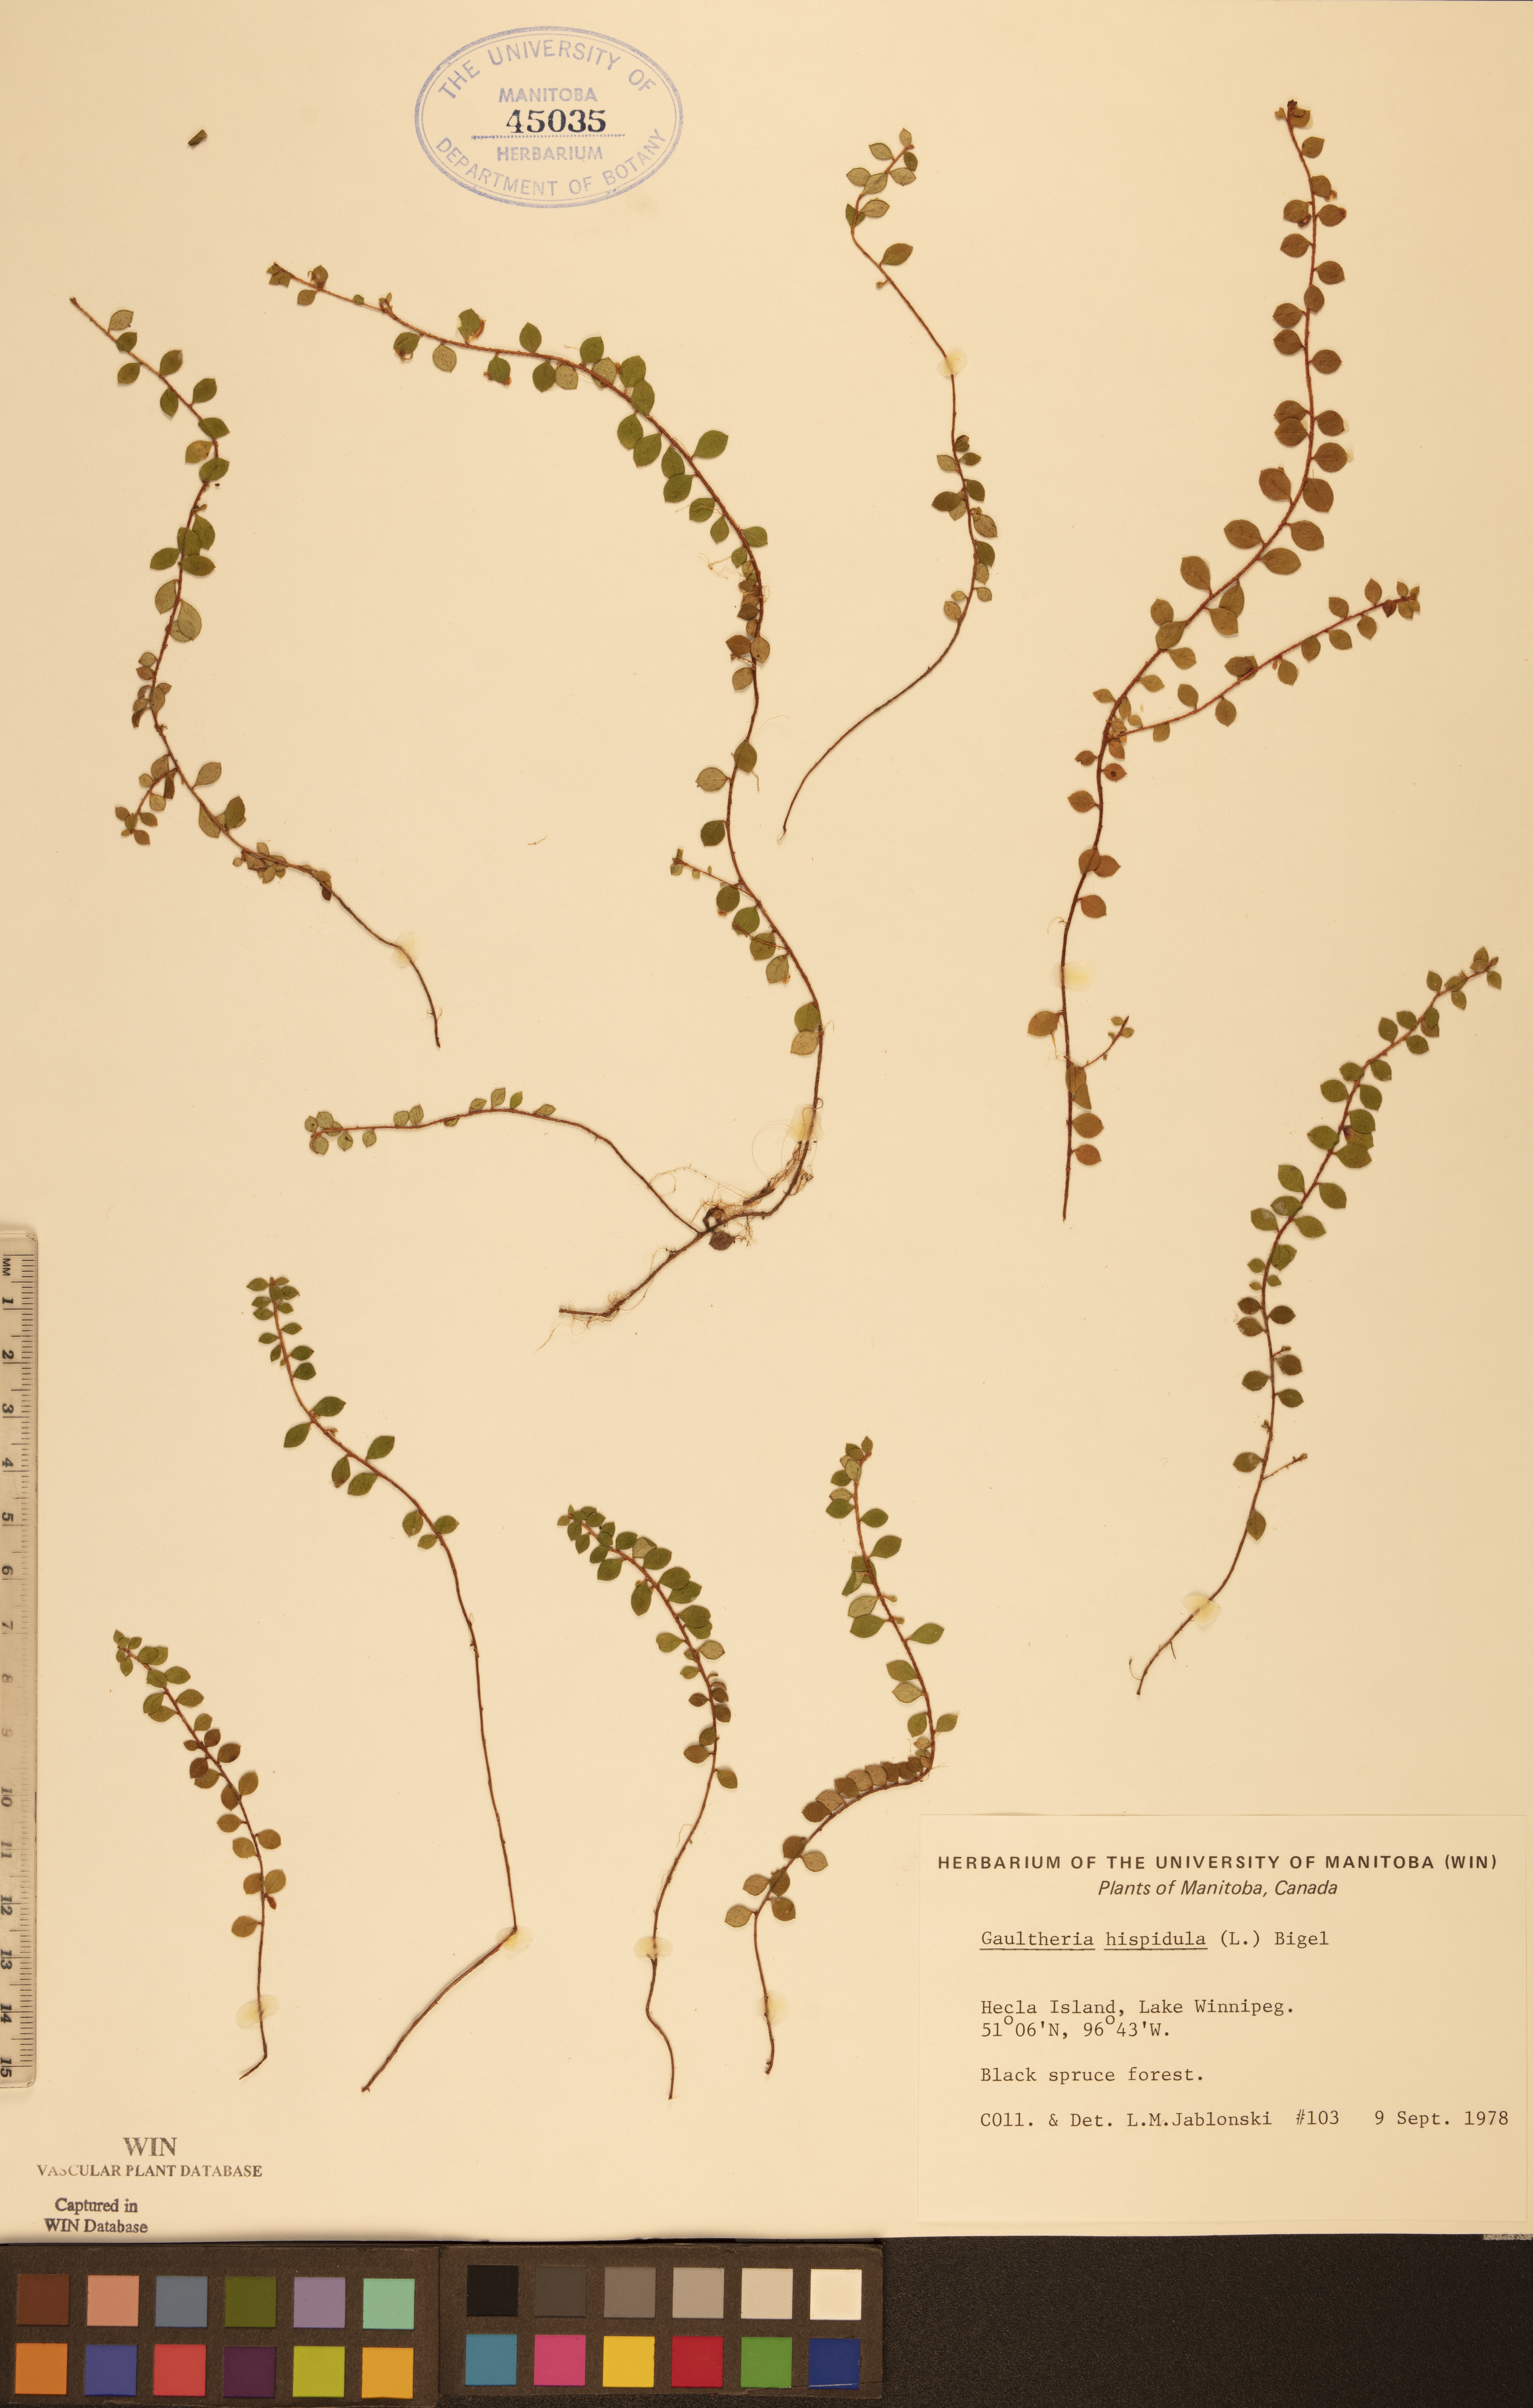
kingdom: Plantae
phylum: Tracheophyta
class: Magnoliopsida
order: Ericales
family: Ericaceae
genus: Gaultheria
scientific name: Gaultheria hispidula
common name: Cancer wintergreen
